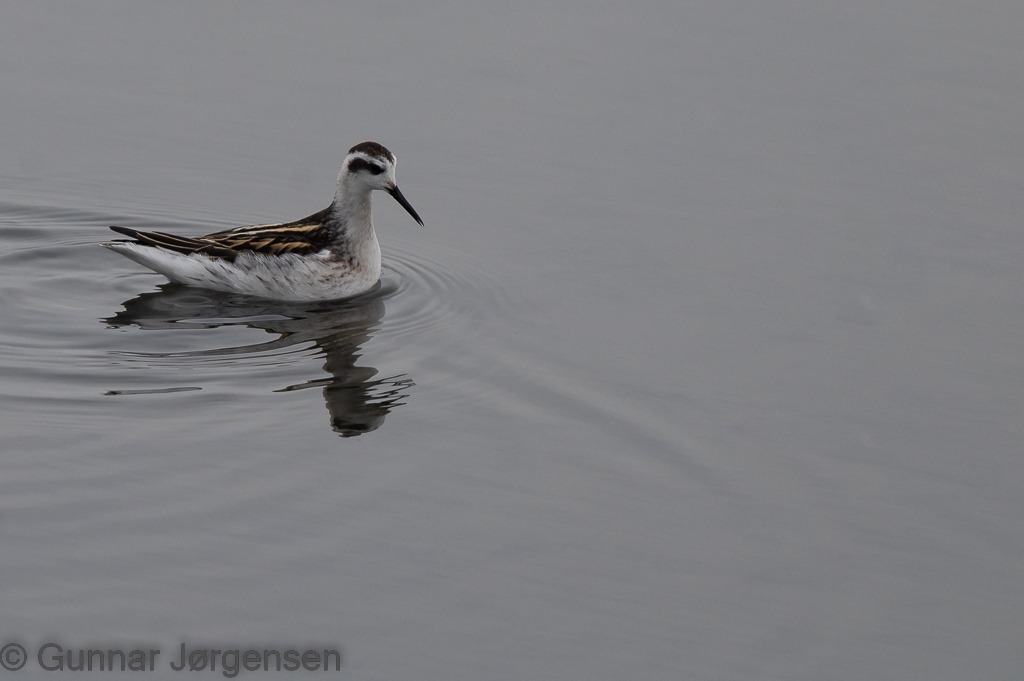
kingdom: Animalia
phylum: Chordata
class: Aves
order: Charadriiformes
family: Scolopacidae
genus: Phalaropus
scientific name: Phalaropus lobatus
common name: Odinshane
